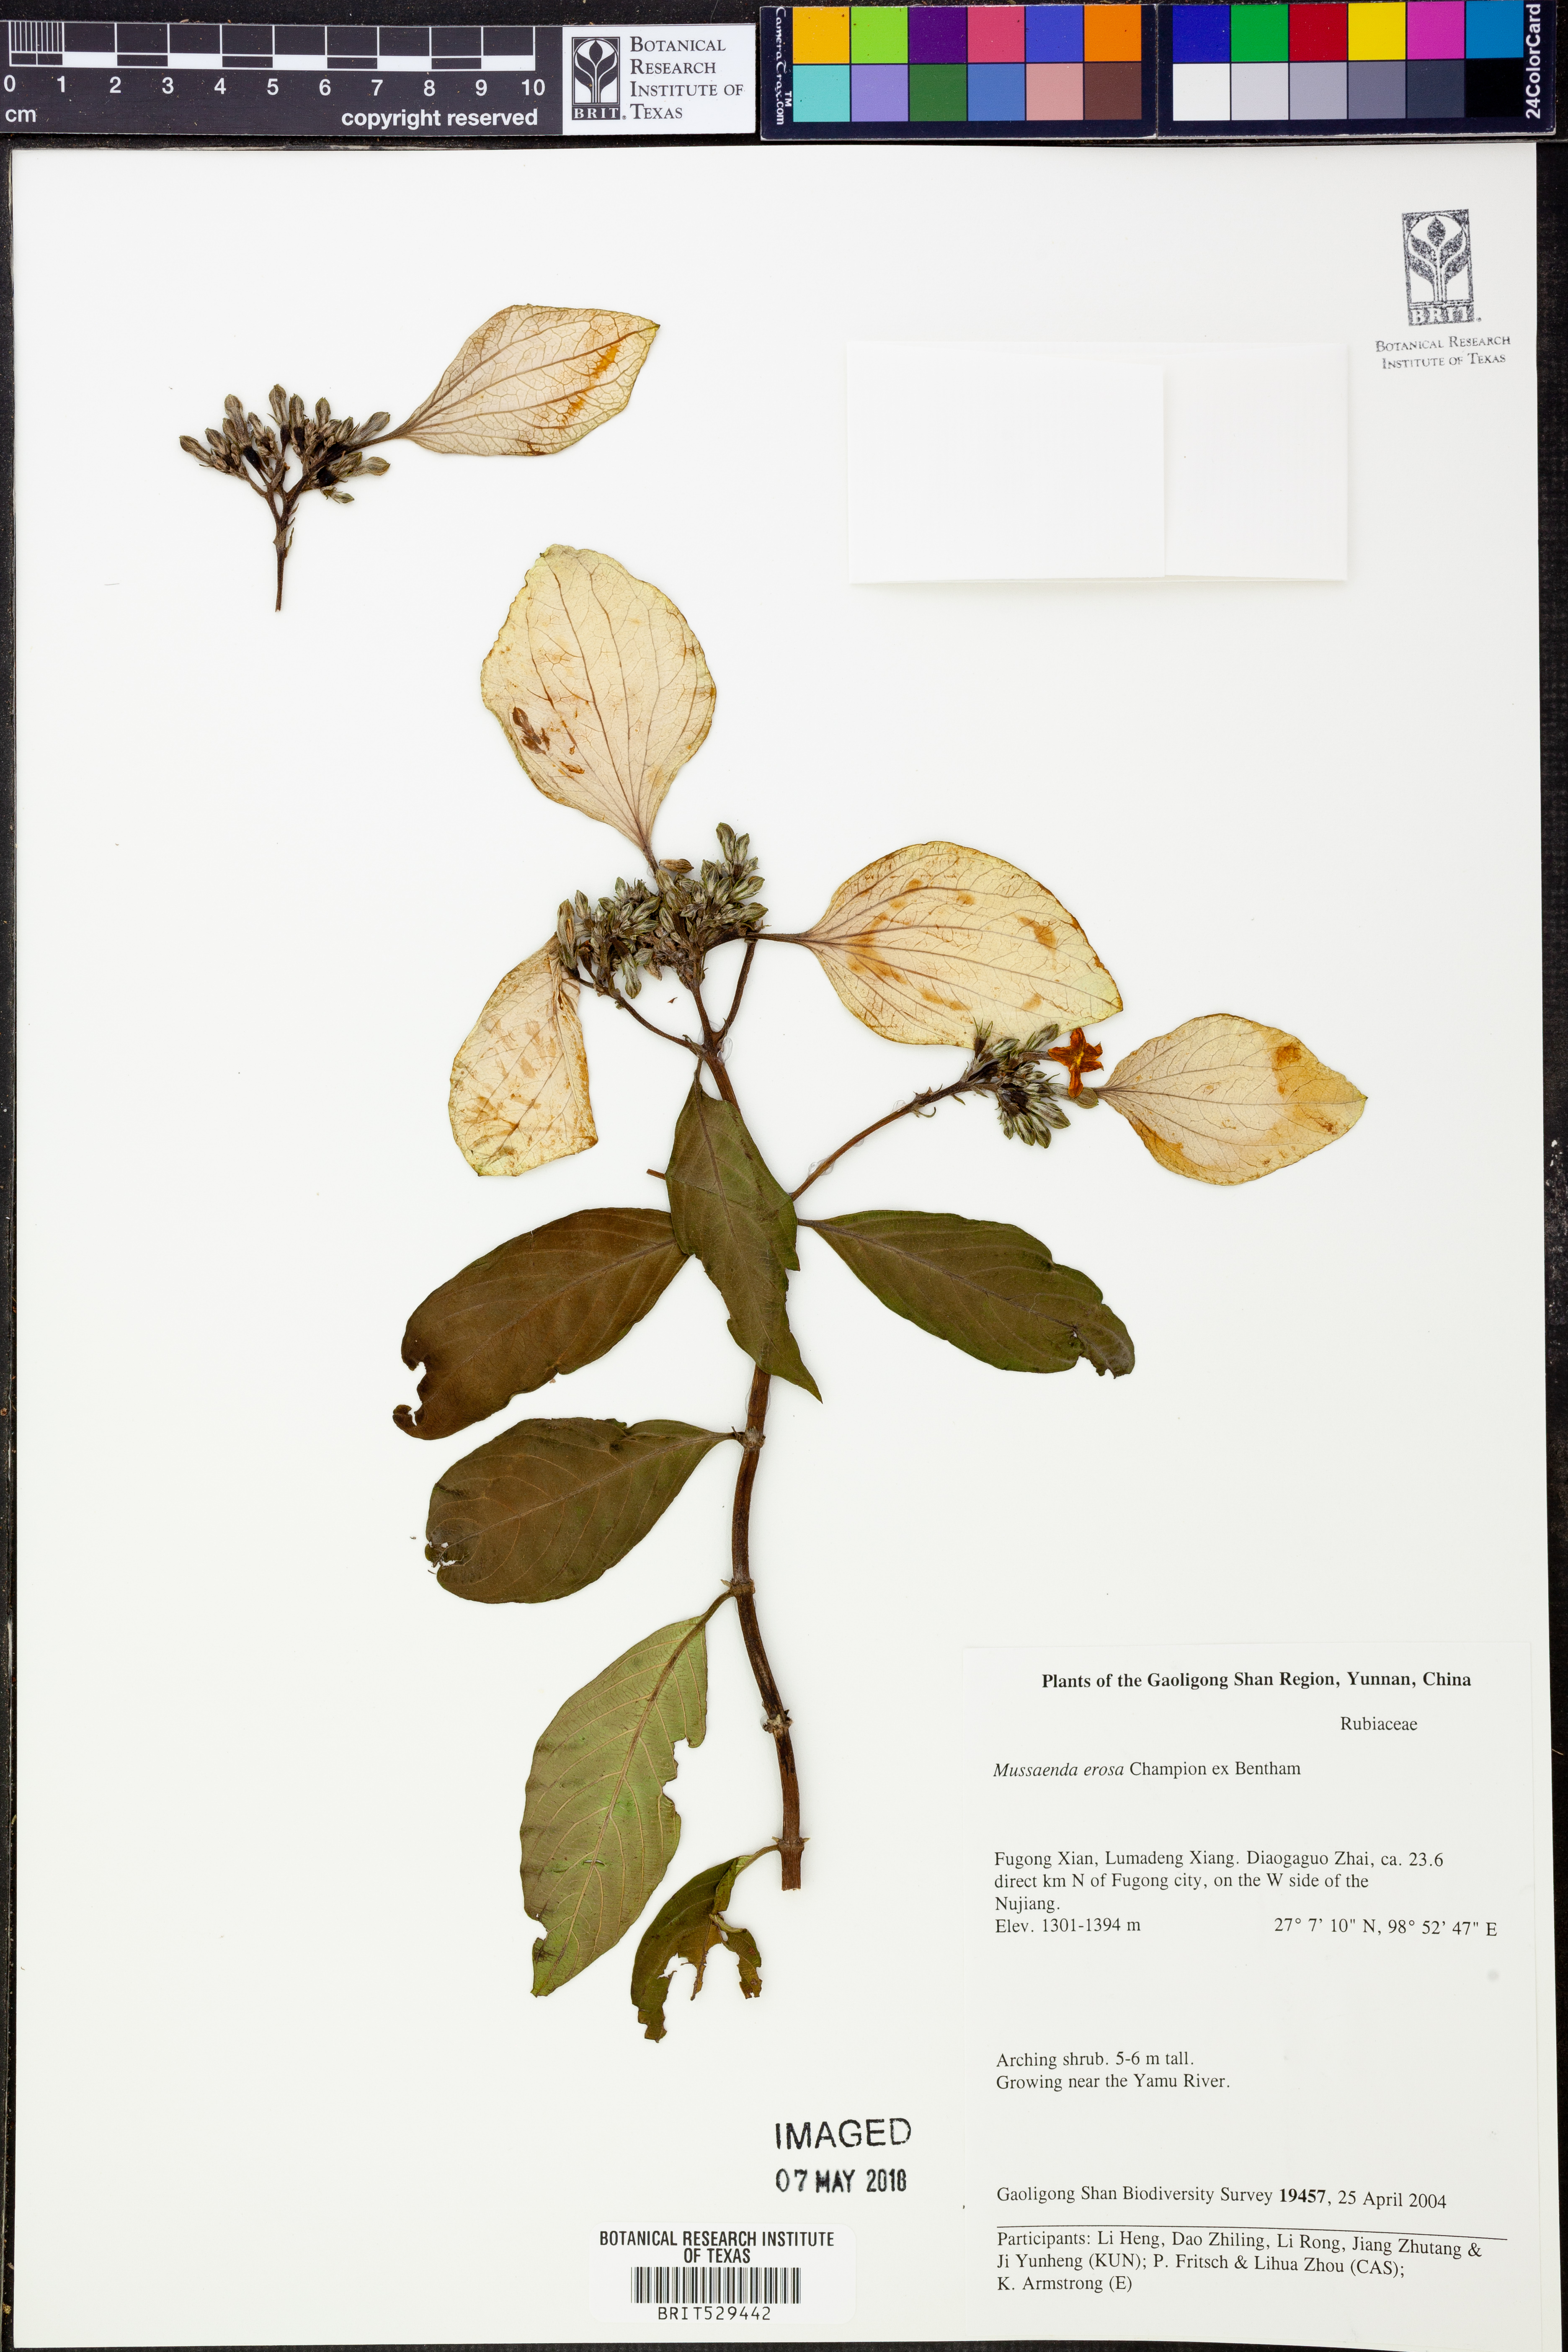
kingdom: Plantae
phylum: Tracheophyta
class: Magnoliopsida
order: Gentianales
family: Rubiaceae
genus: Mussaenda
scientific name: Mussaenda erosa
